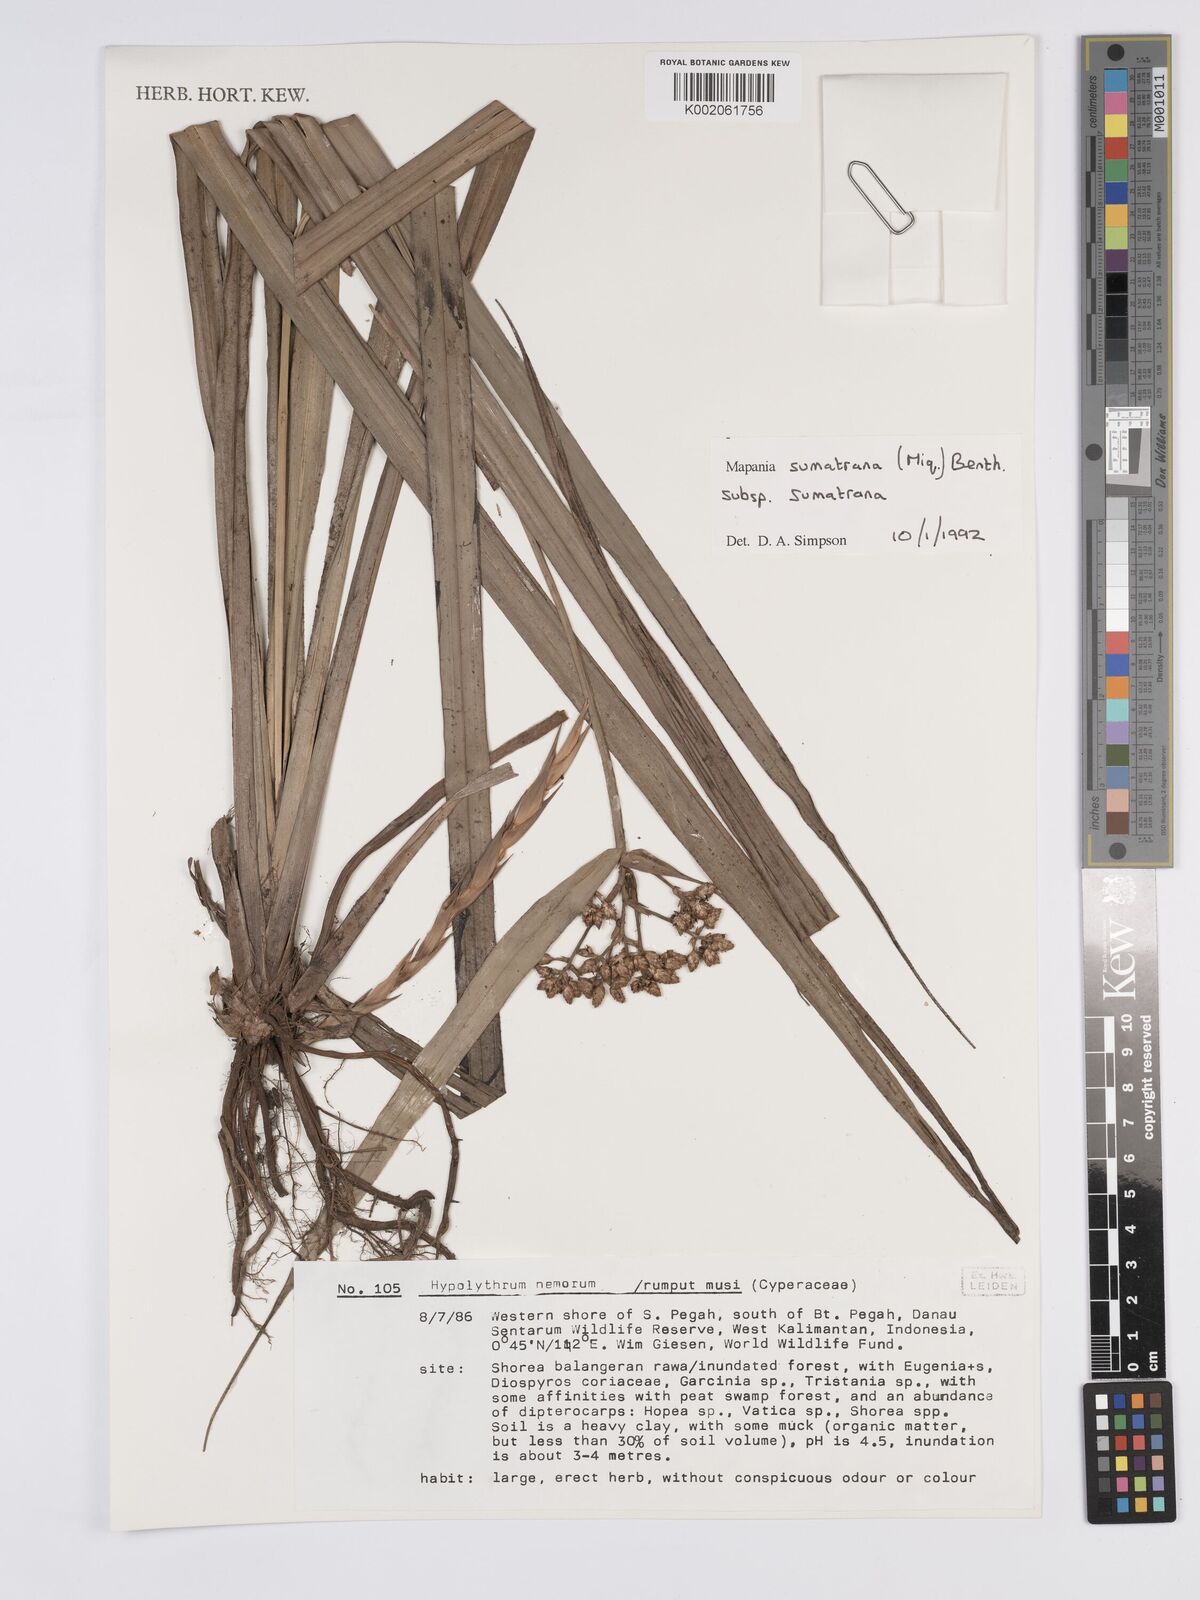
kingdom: Plantae
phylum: Tracheophyta
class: Liliopsida
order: Poales
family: Cyperaceae
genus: Mapania
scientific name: Mapania sumatrana
